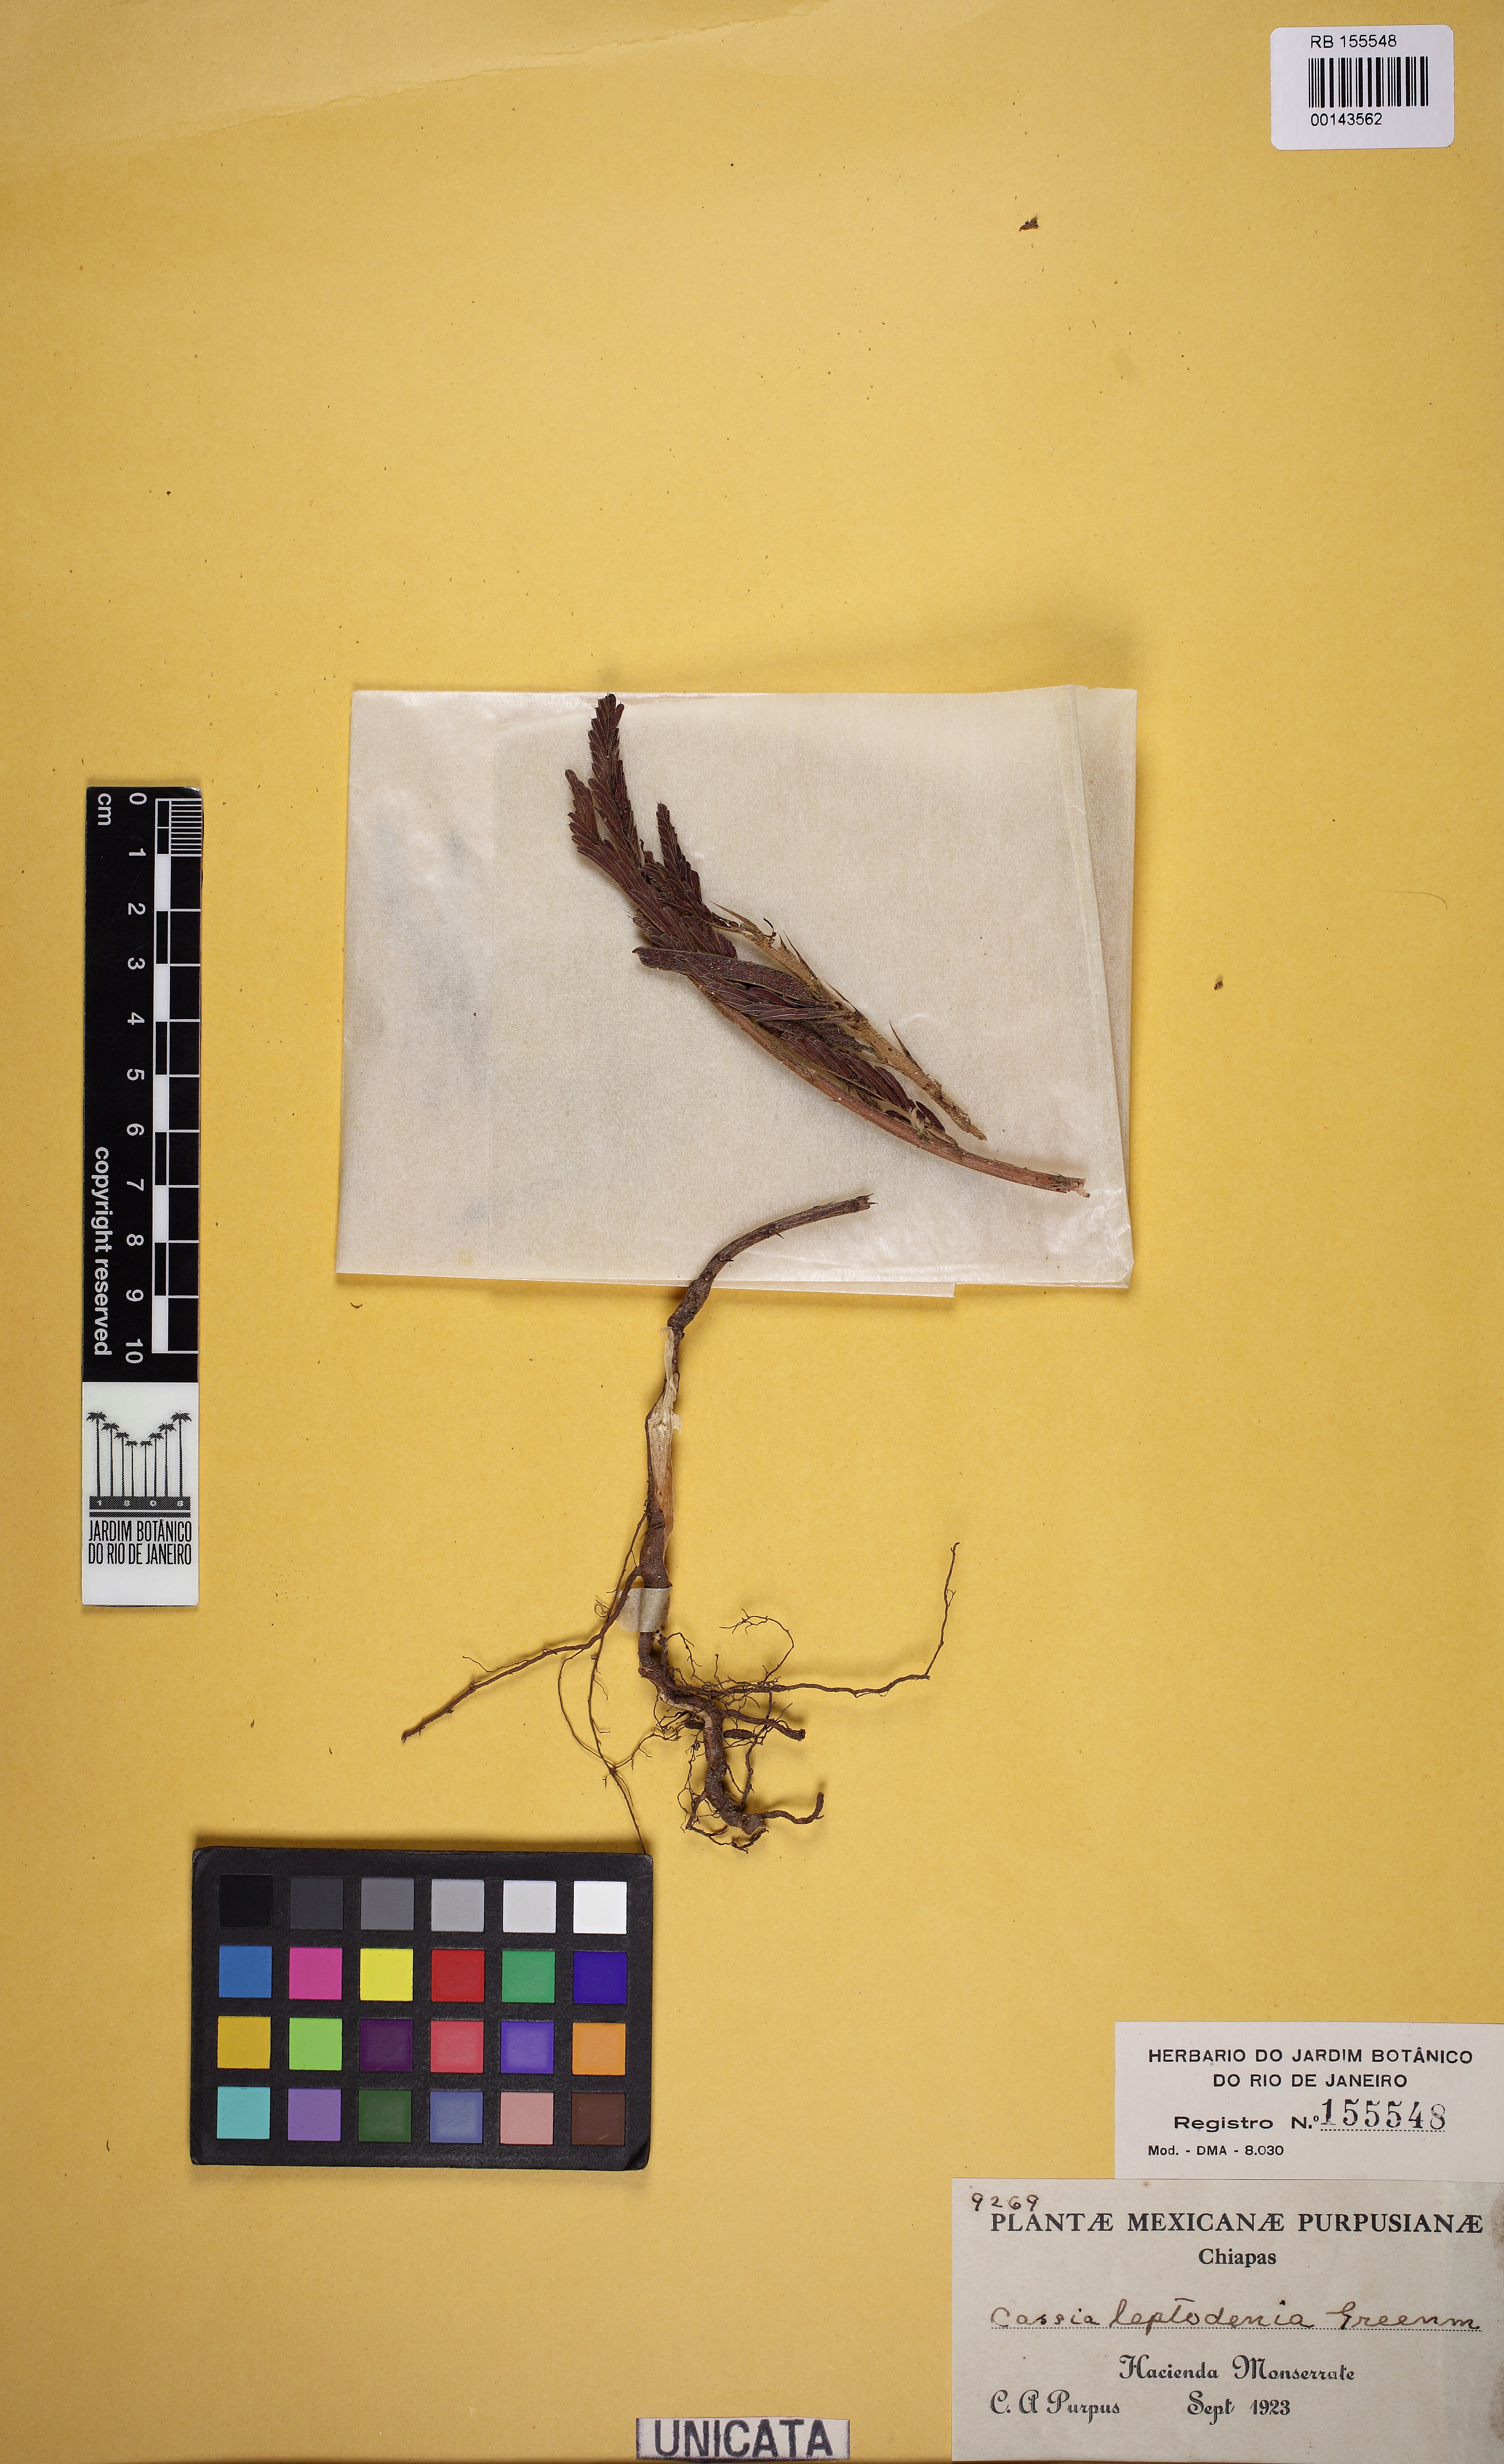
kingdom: Plantae
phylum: Tracheophyta
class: Magnoliopsida
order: Fabales
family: Fabaceae
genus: Chamaecrista
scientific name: Chamaecrista nictitans
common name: Sensitive cassia
